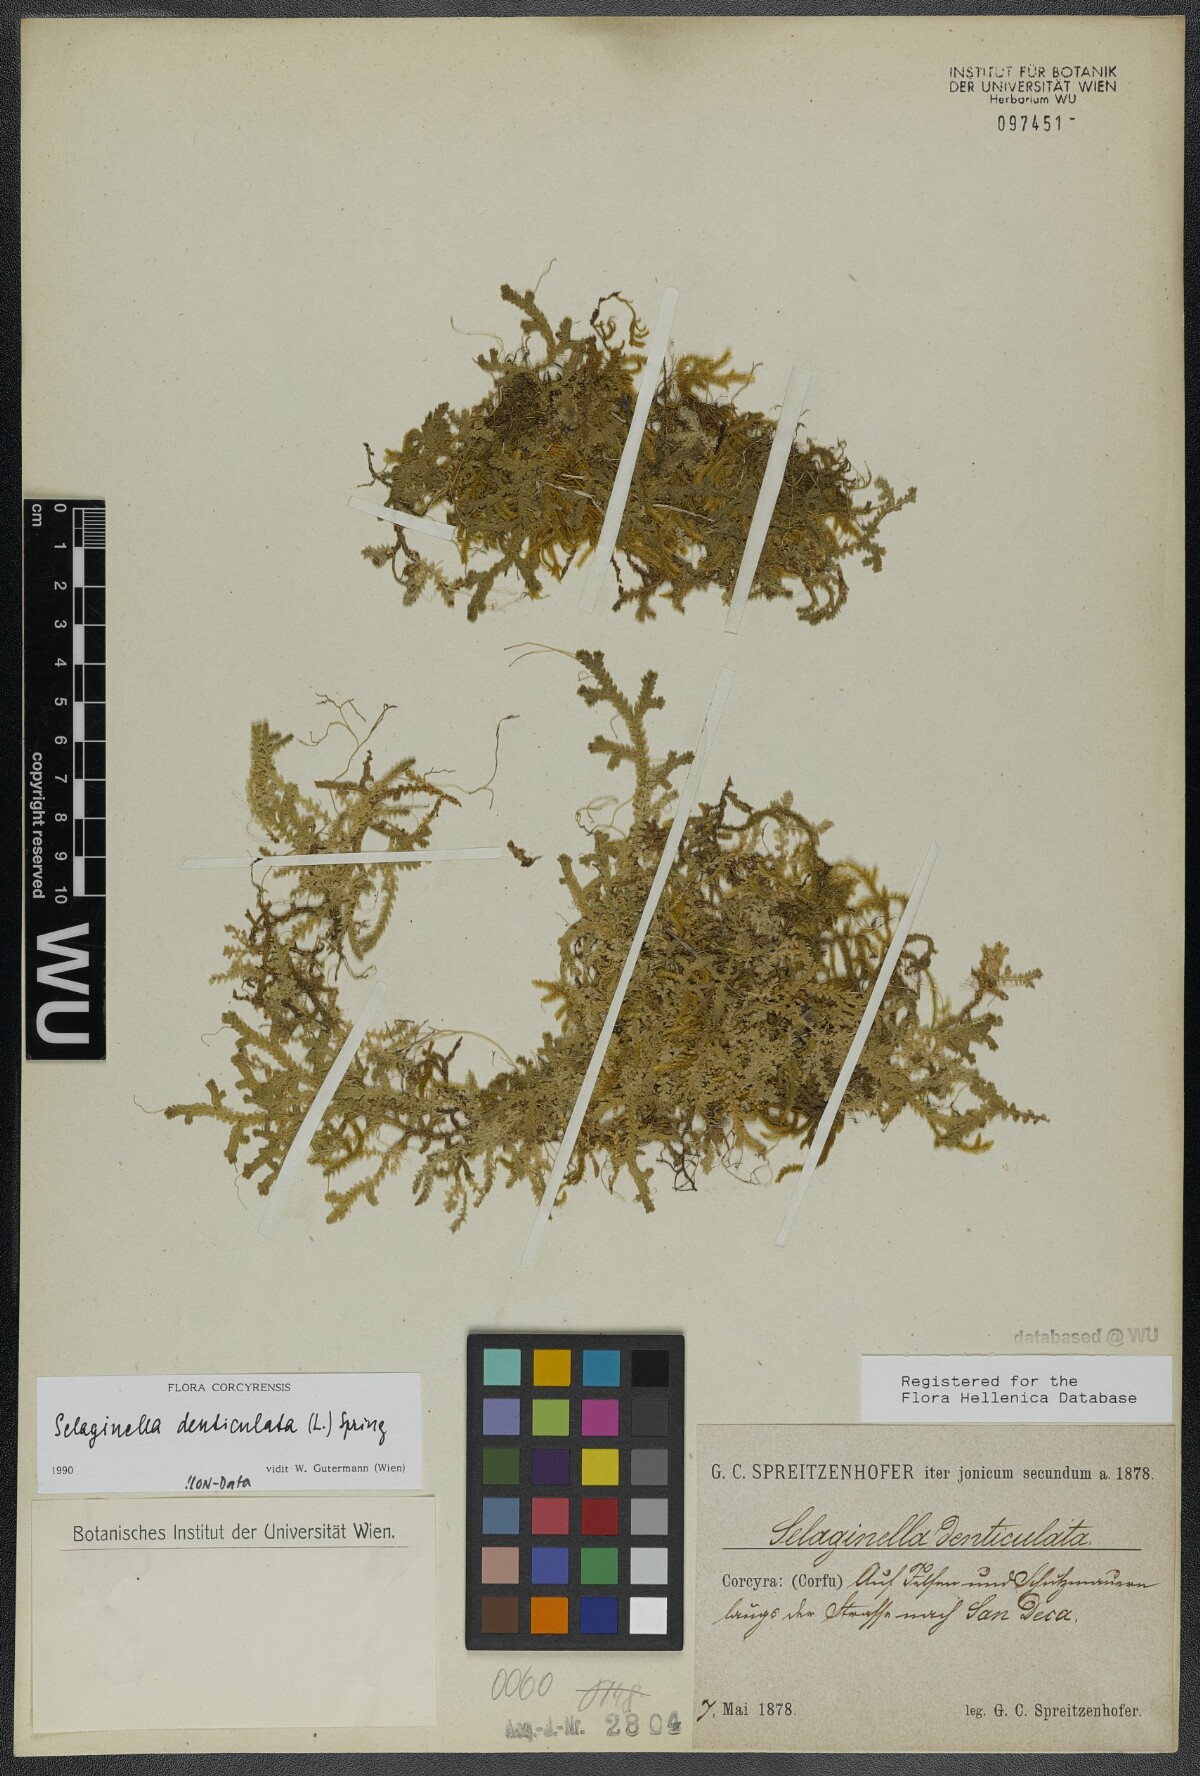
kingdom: Plantae
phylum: Tracheophyta
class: Lycopodiopsida
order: Selaginellales
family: Selaginellaceae
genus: Selaginella
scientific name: Selaginella denticulata
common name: Toothed-leaved clubmoss
